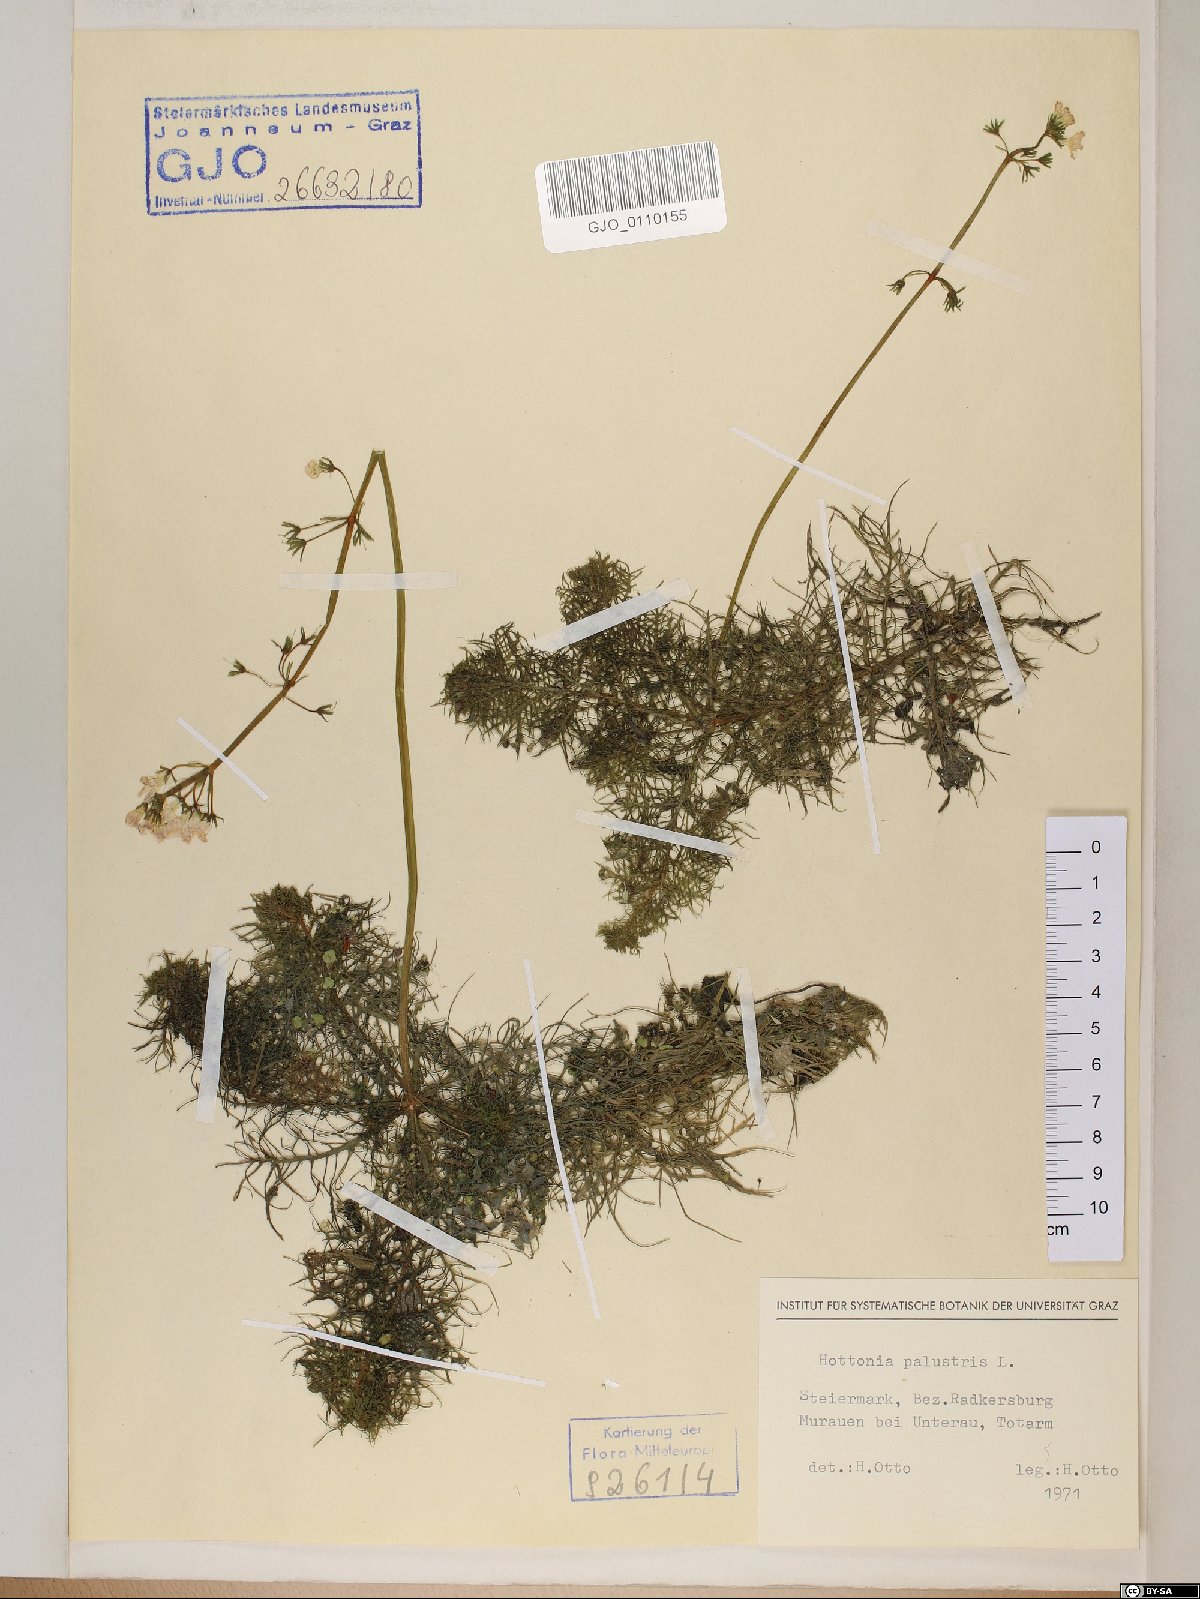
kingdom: Plantae
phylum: Tracheophyta
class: Magnoliopsida
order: Ericales
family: Primulaceae
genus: Hottonia
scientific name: Hottonia palustris
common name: Water-violet
